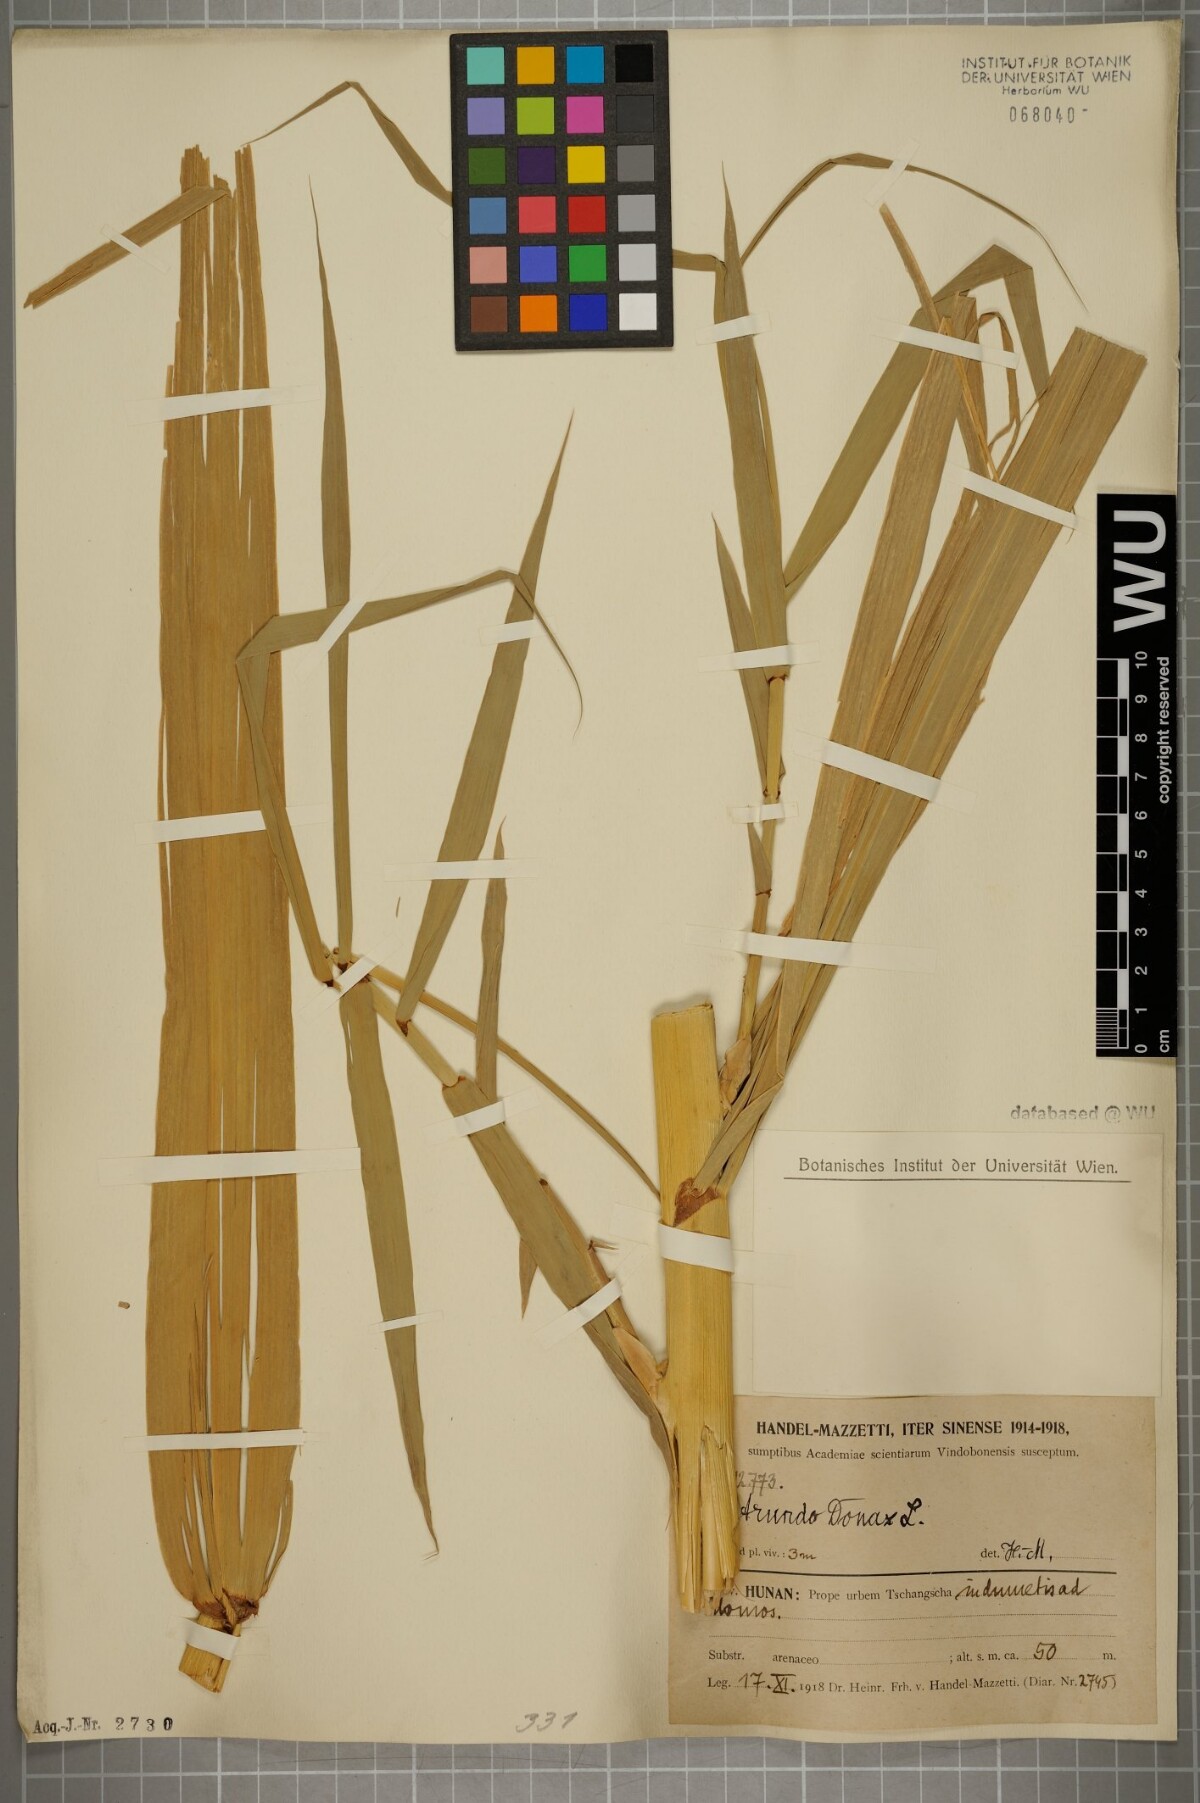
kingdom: Plantae
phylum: Tracheophyta
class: Liliopsida
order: Poales
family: Poaceae
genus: Arundo
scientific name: Arundo donax
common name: Giant reed
